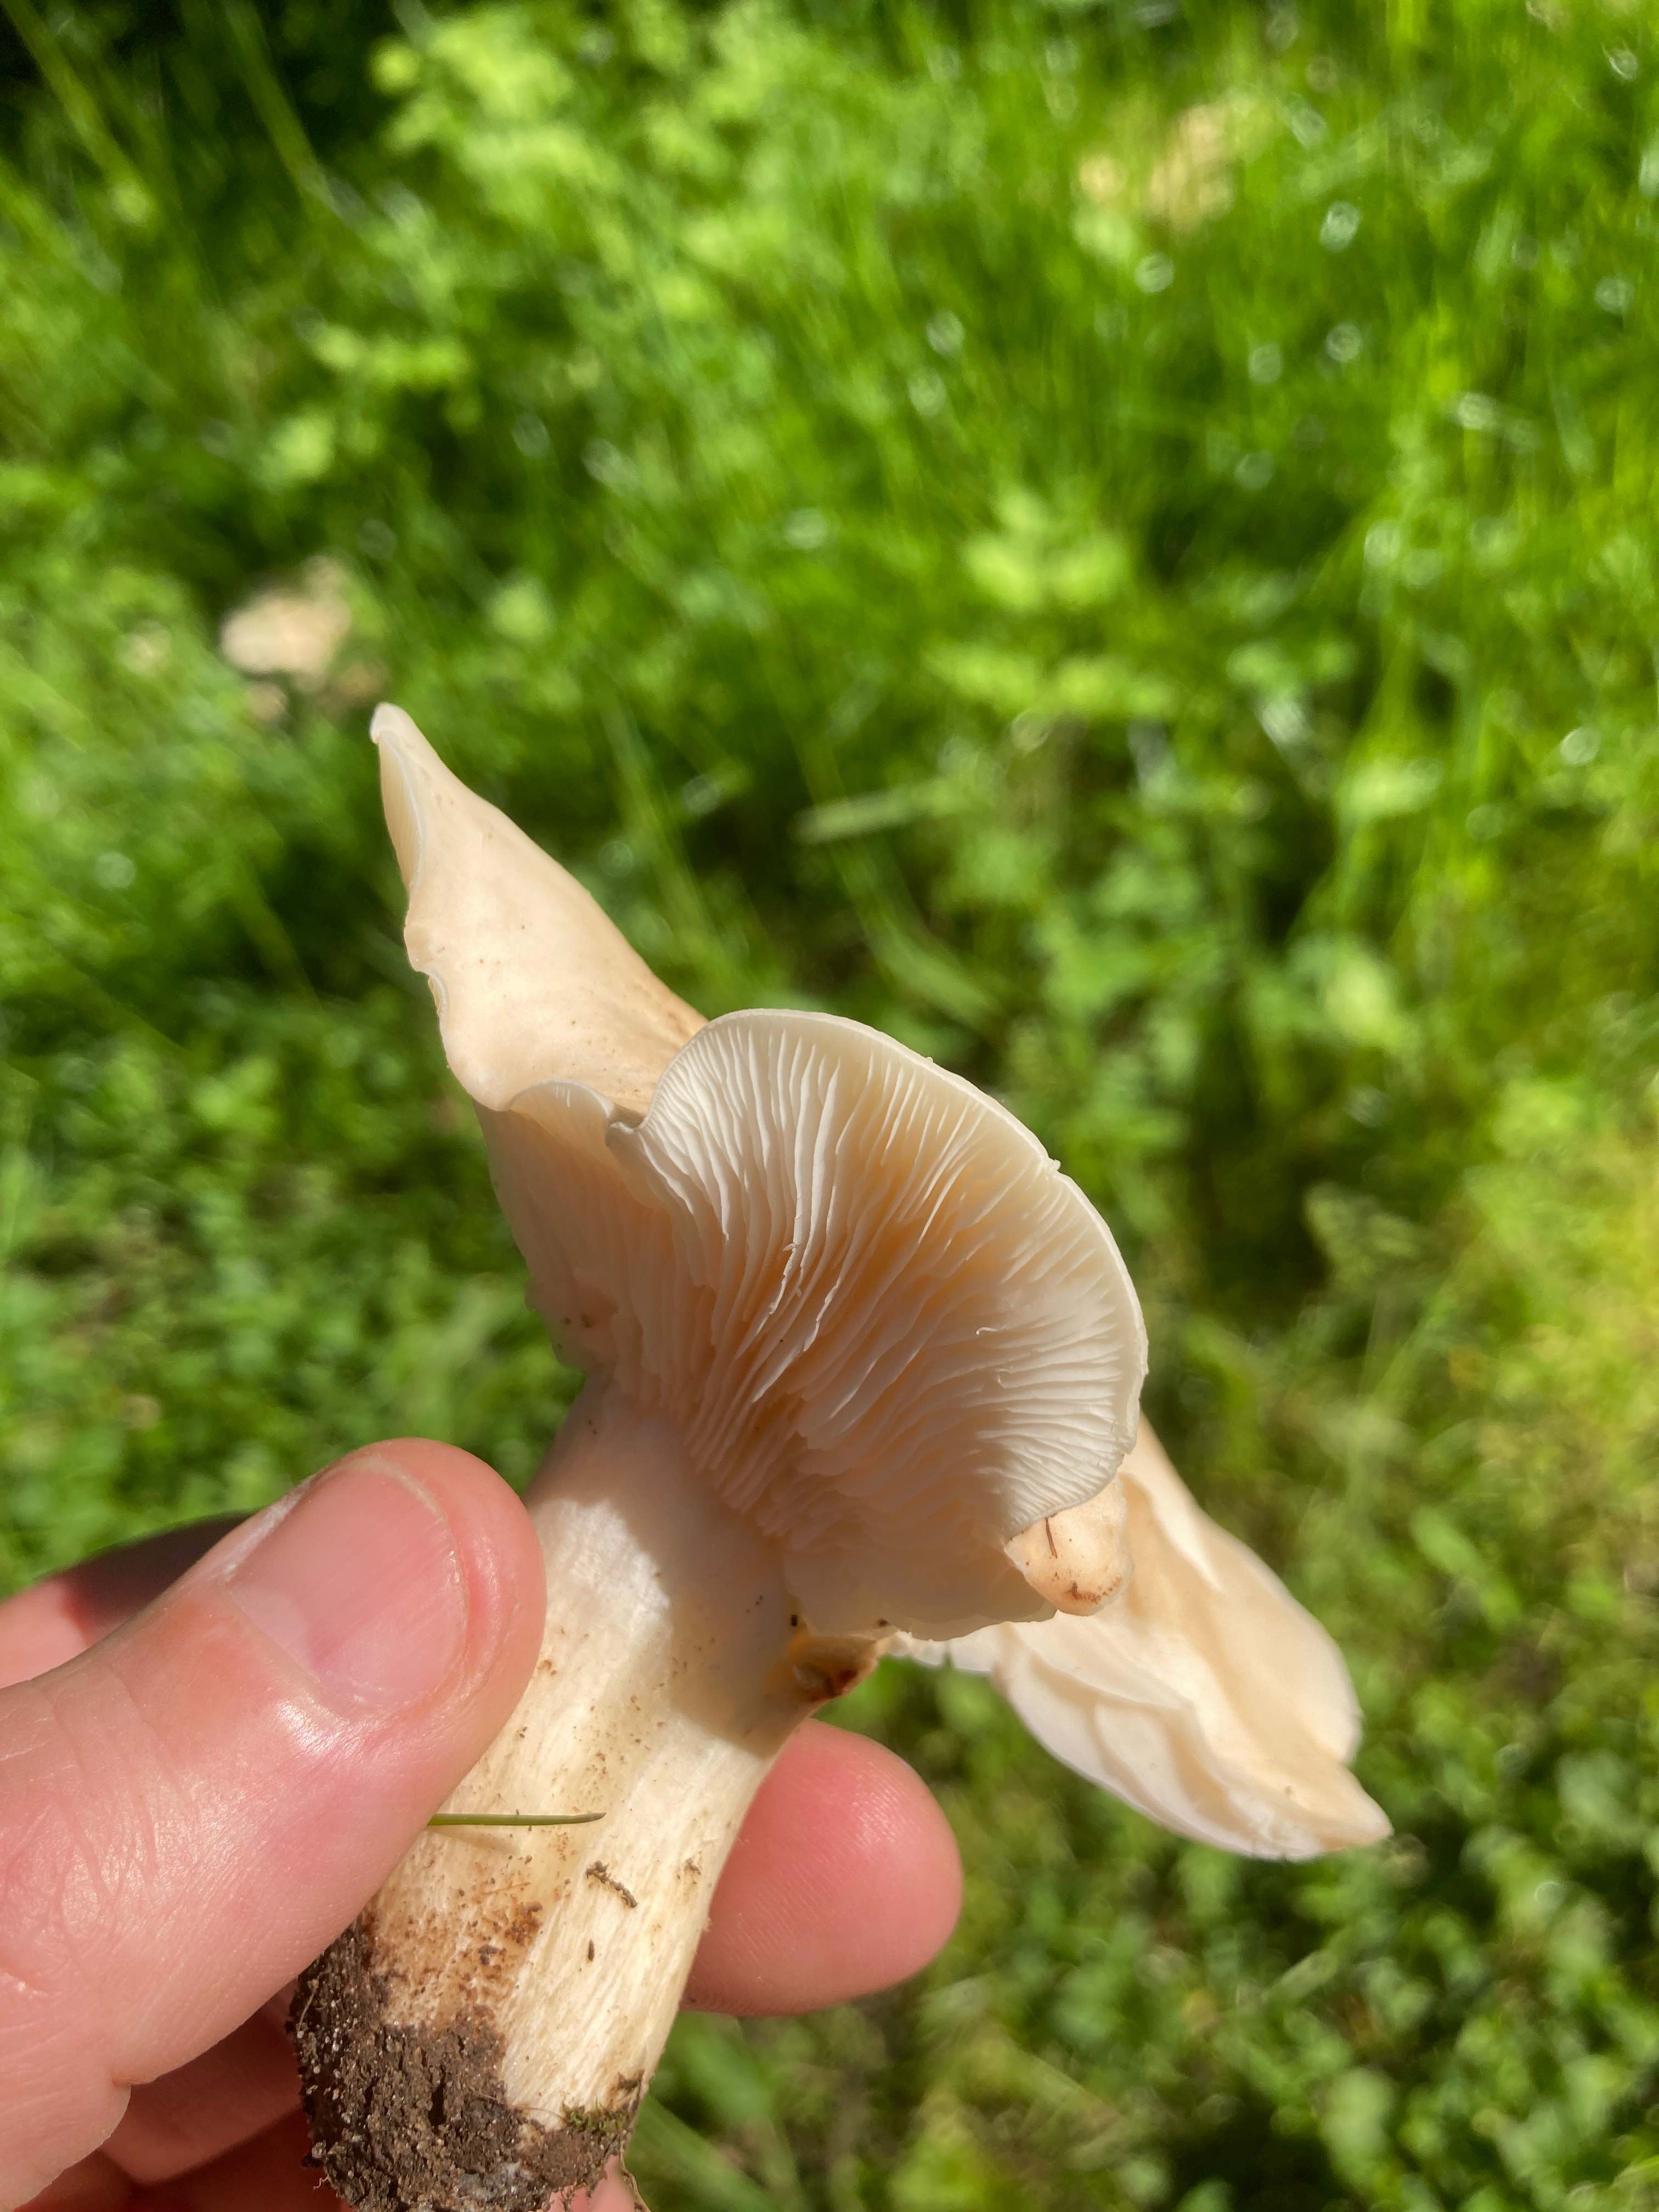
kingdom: Fungi
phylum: Basidiomycota
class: Agaricomycetes
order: Agaricales
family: Lyophyllaceae
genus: Calocybe
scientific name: Calocybe gambosa
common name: vårmusseron
